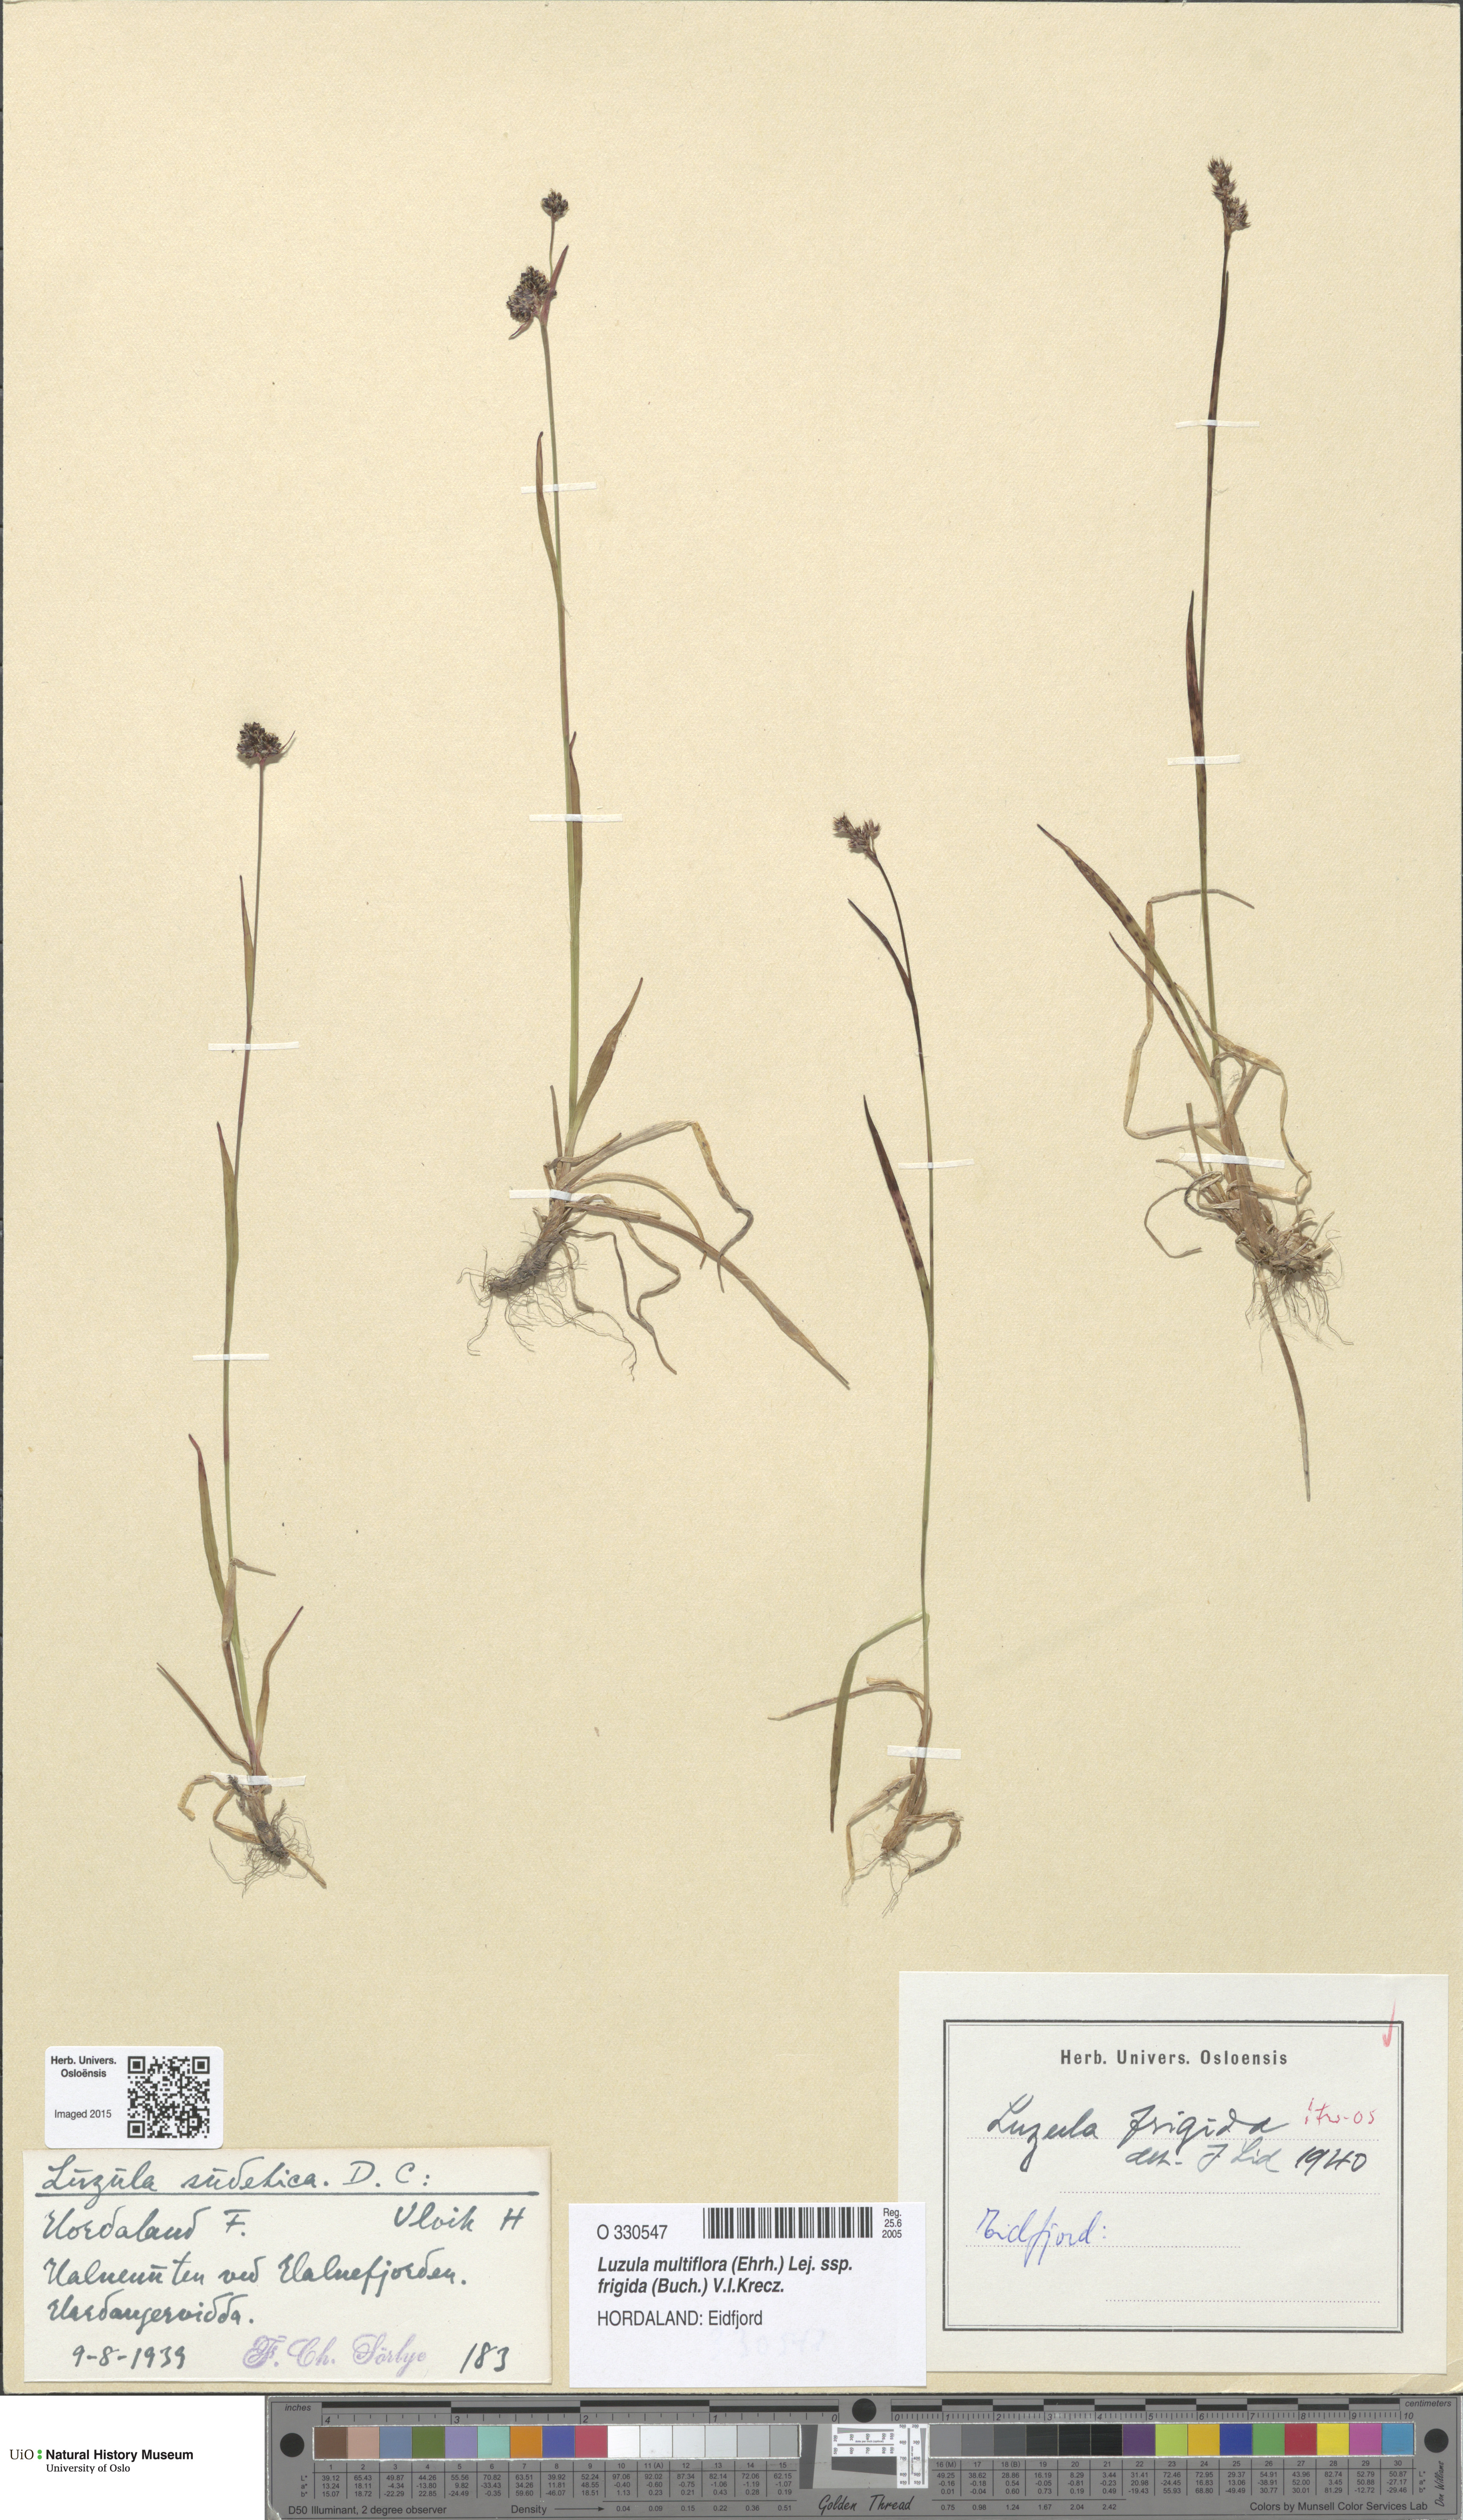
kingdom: Plantae
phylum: Tracheophyta
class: Liliopsida
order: Poales
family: Juncaceae
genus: Luzula
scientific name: Luzula multiflora
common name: Heath wood-rush
